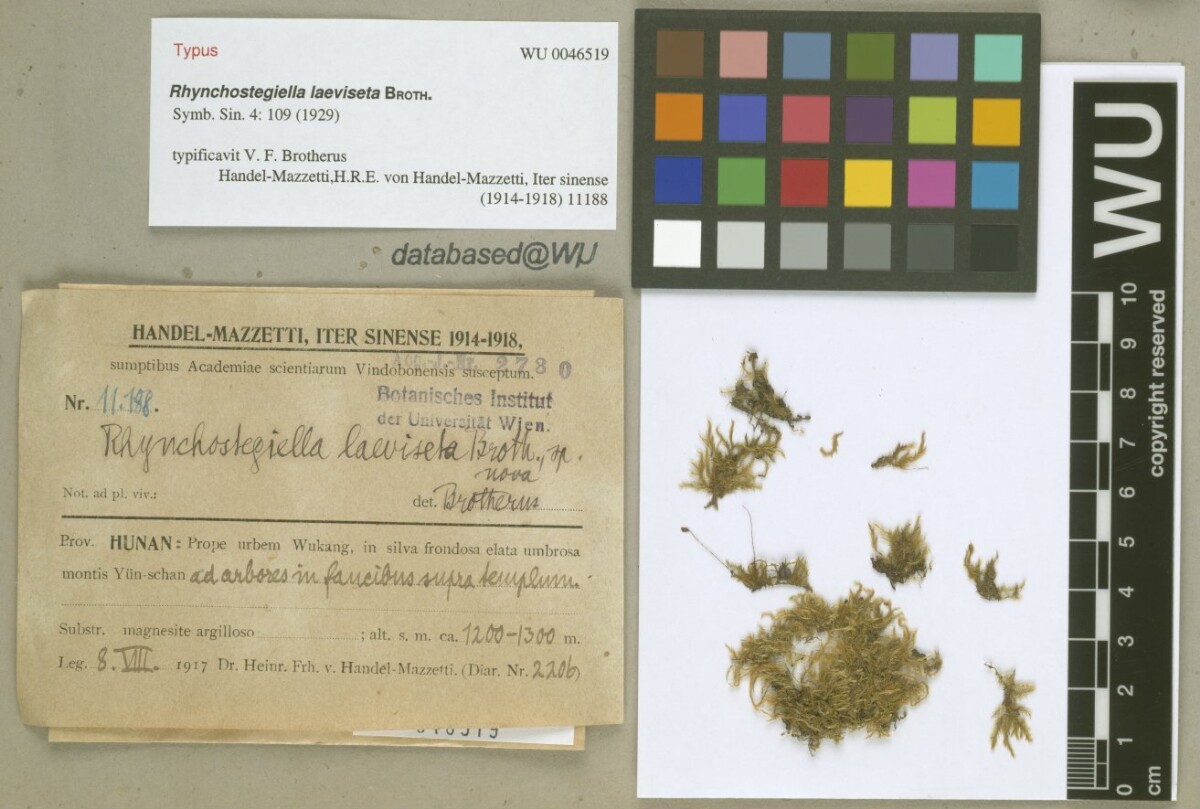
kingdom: Plantae
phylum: Bryophyta
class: Bryopsida
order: Hypnales
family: Brachytheciaceae
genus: Rhynchostegium
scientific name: Rhynchostegium psilopodium
